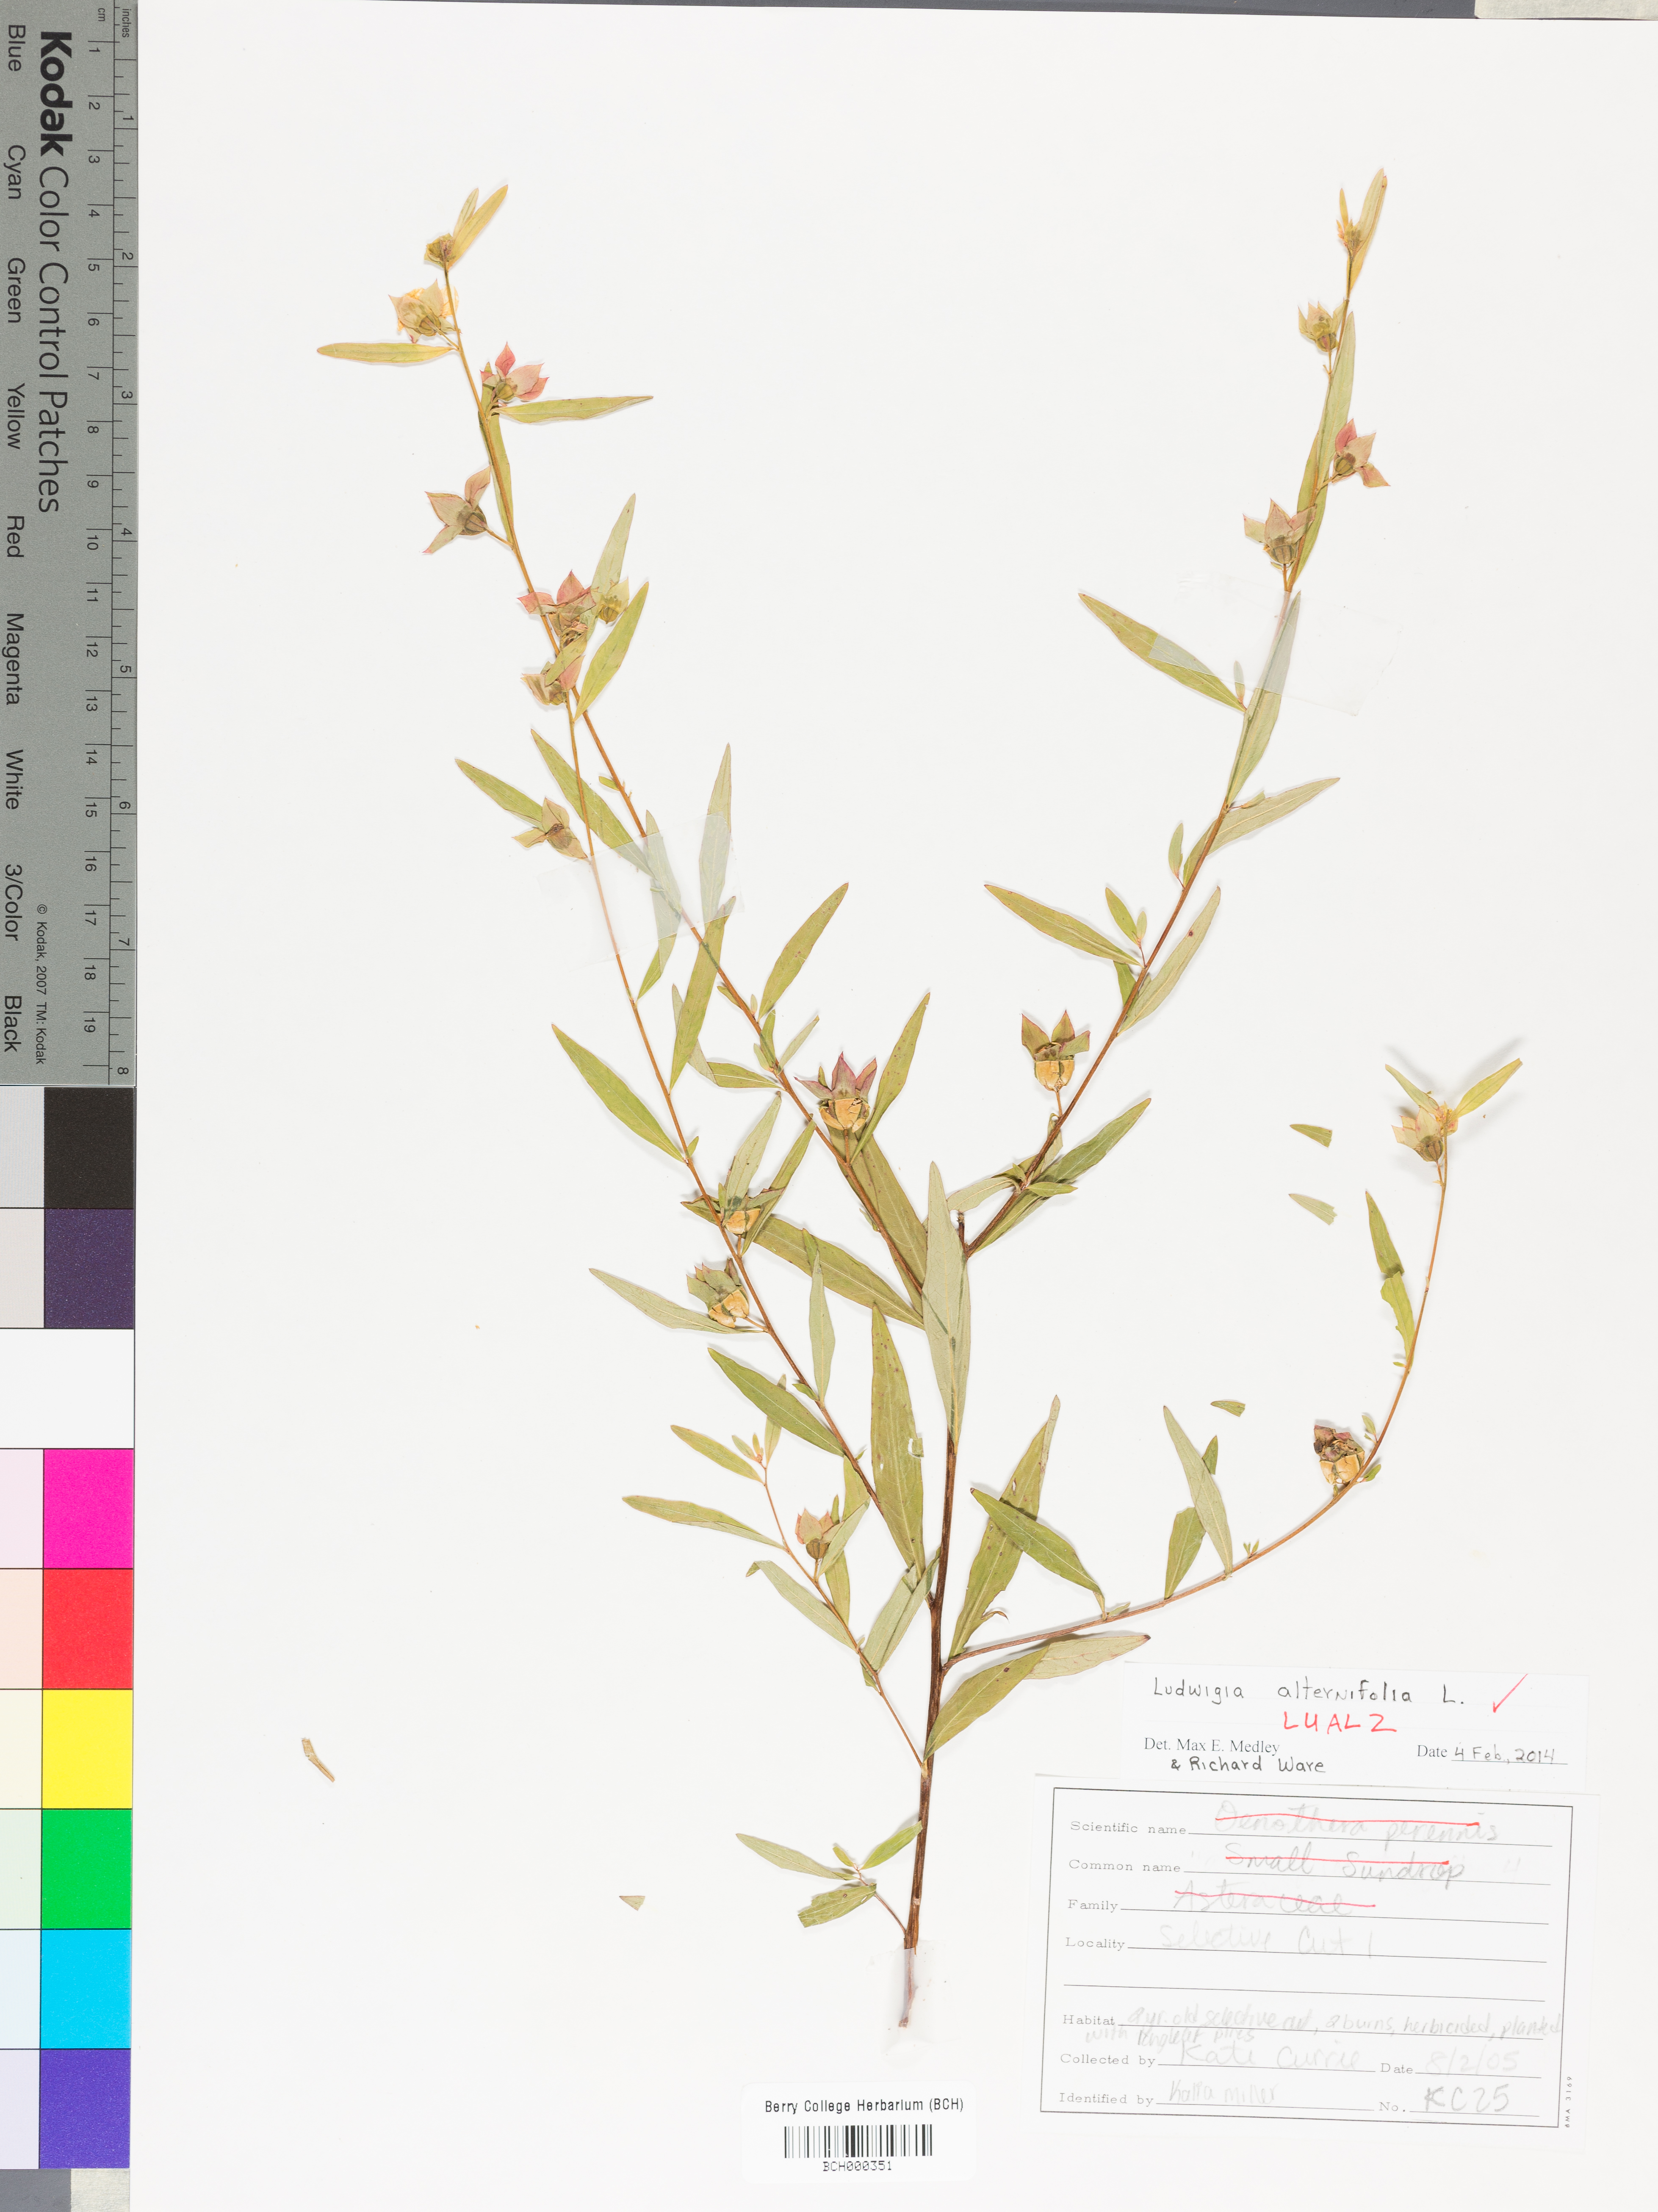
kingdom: Plantae
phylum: Tracheophyta
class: Magnoliopsida
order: Myrtales
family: Onagraceae
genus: Ludwigia
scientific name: Ludwigia alternifolia
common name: Rattlebox
